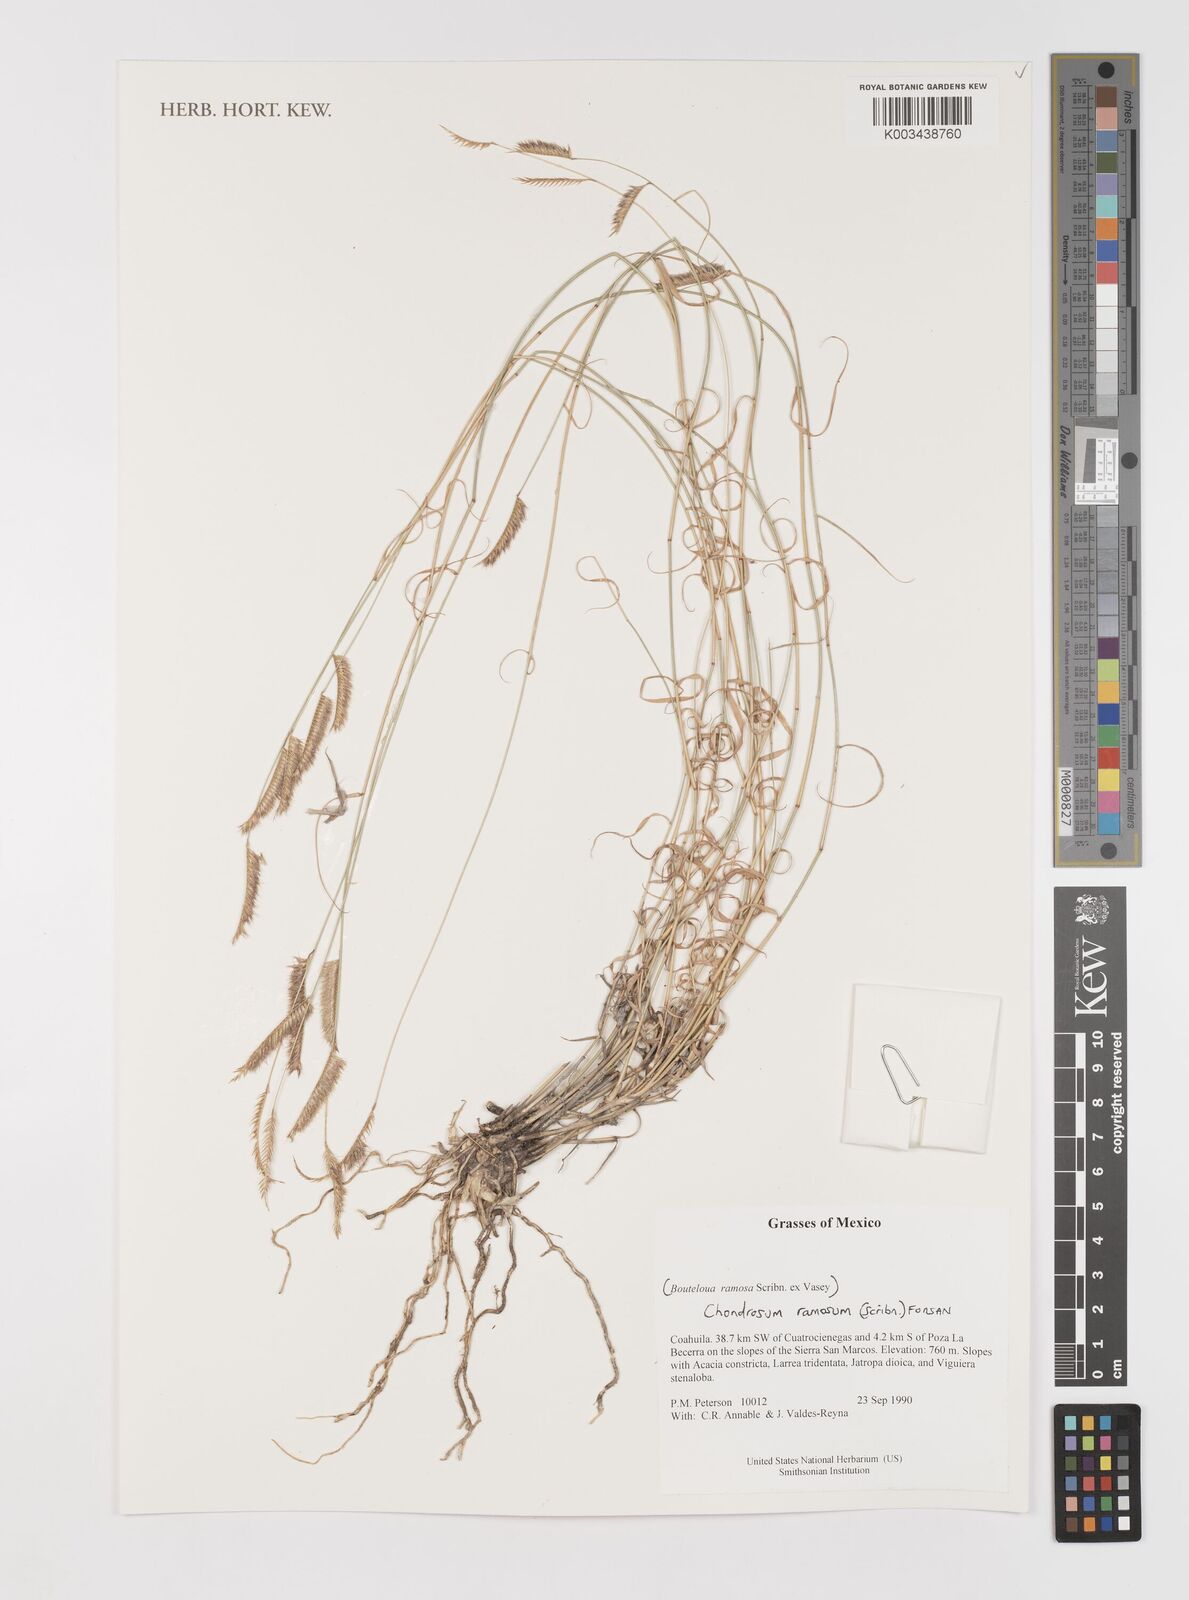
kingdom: Plantae
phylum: Tracheophyta
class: Liliopsida
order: Poales
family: Poaceae
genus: Bouteloua
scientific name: Bouteloua ramosa
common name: Chino grama
